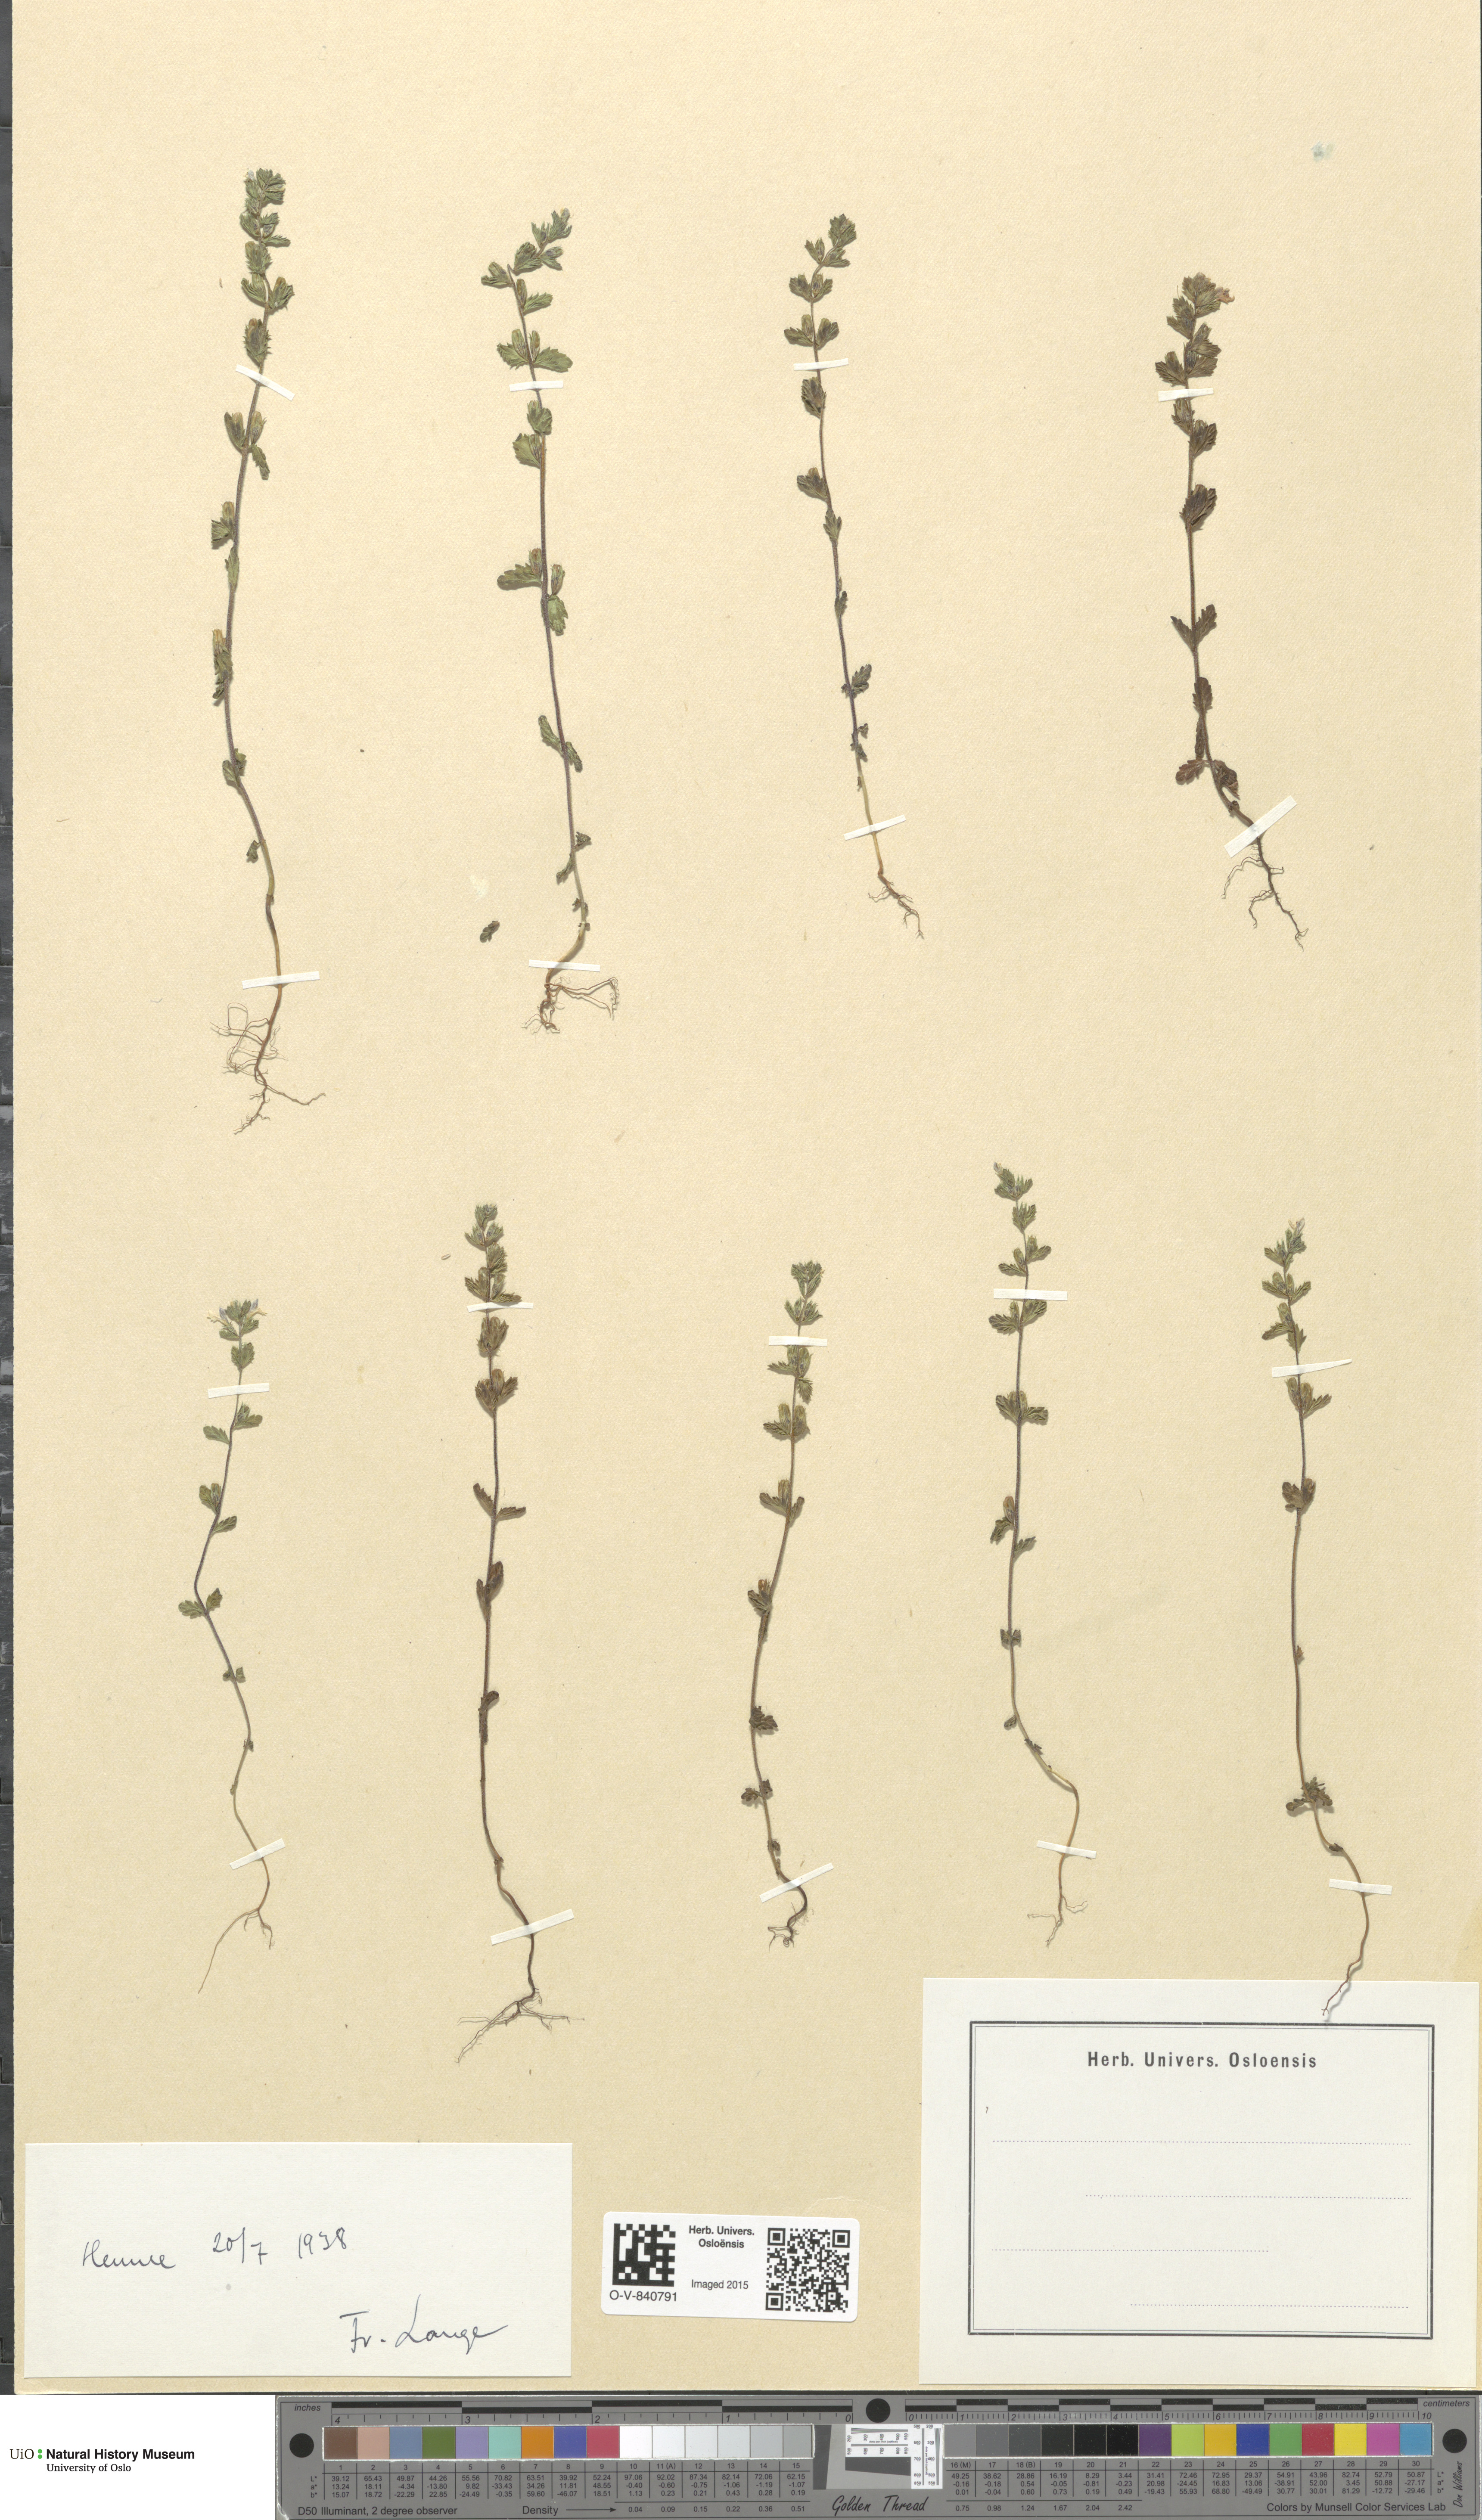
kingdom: Plantae
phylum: Tracheophyta
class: Magnoliopsida
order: Lamiales
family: Orobanchaceae
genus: Euphrasia
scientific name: Euphrasia
